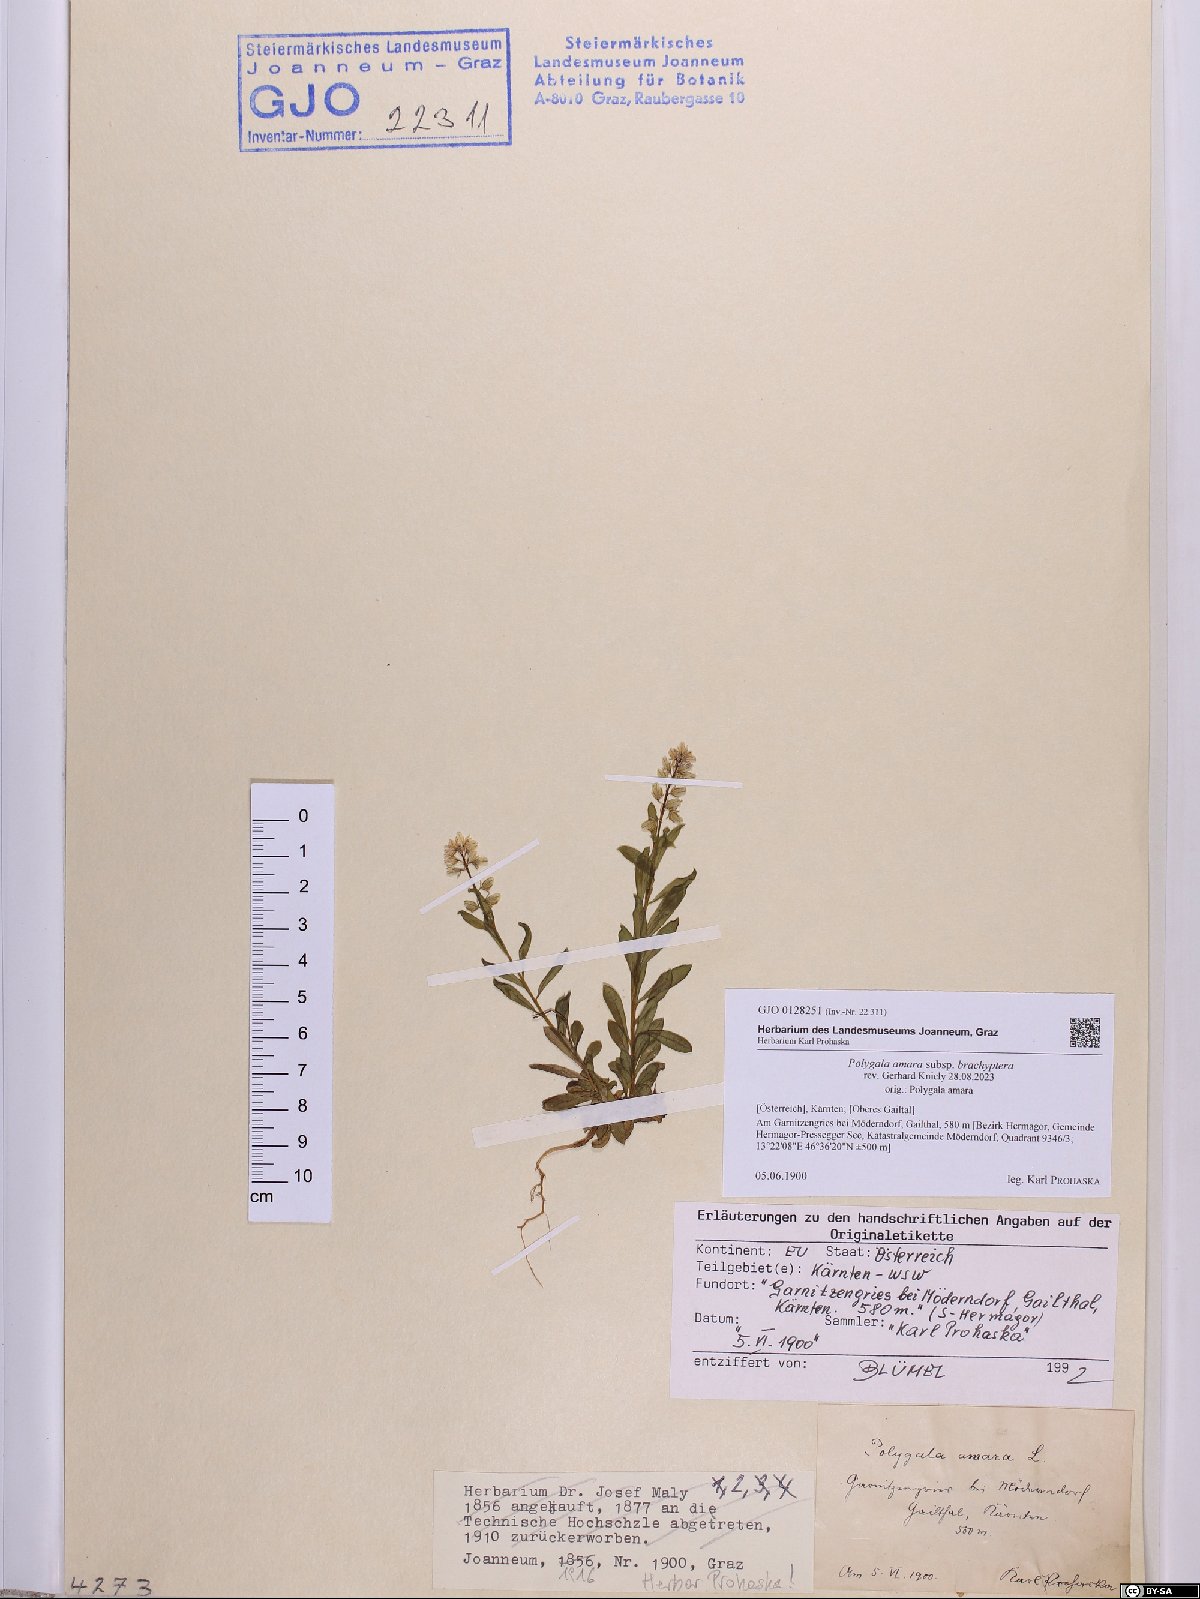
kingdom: Plantae
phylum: Tracheophyta
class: Magnoliopsida
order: Fabales
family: Polygalaceae
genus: Polygala
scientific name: Polygala amara
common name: Milkwort
